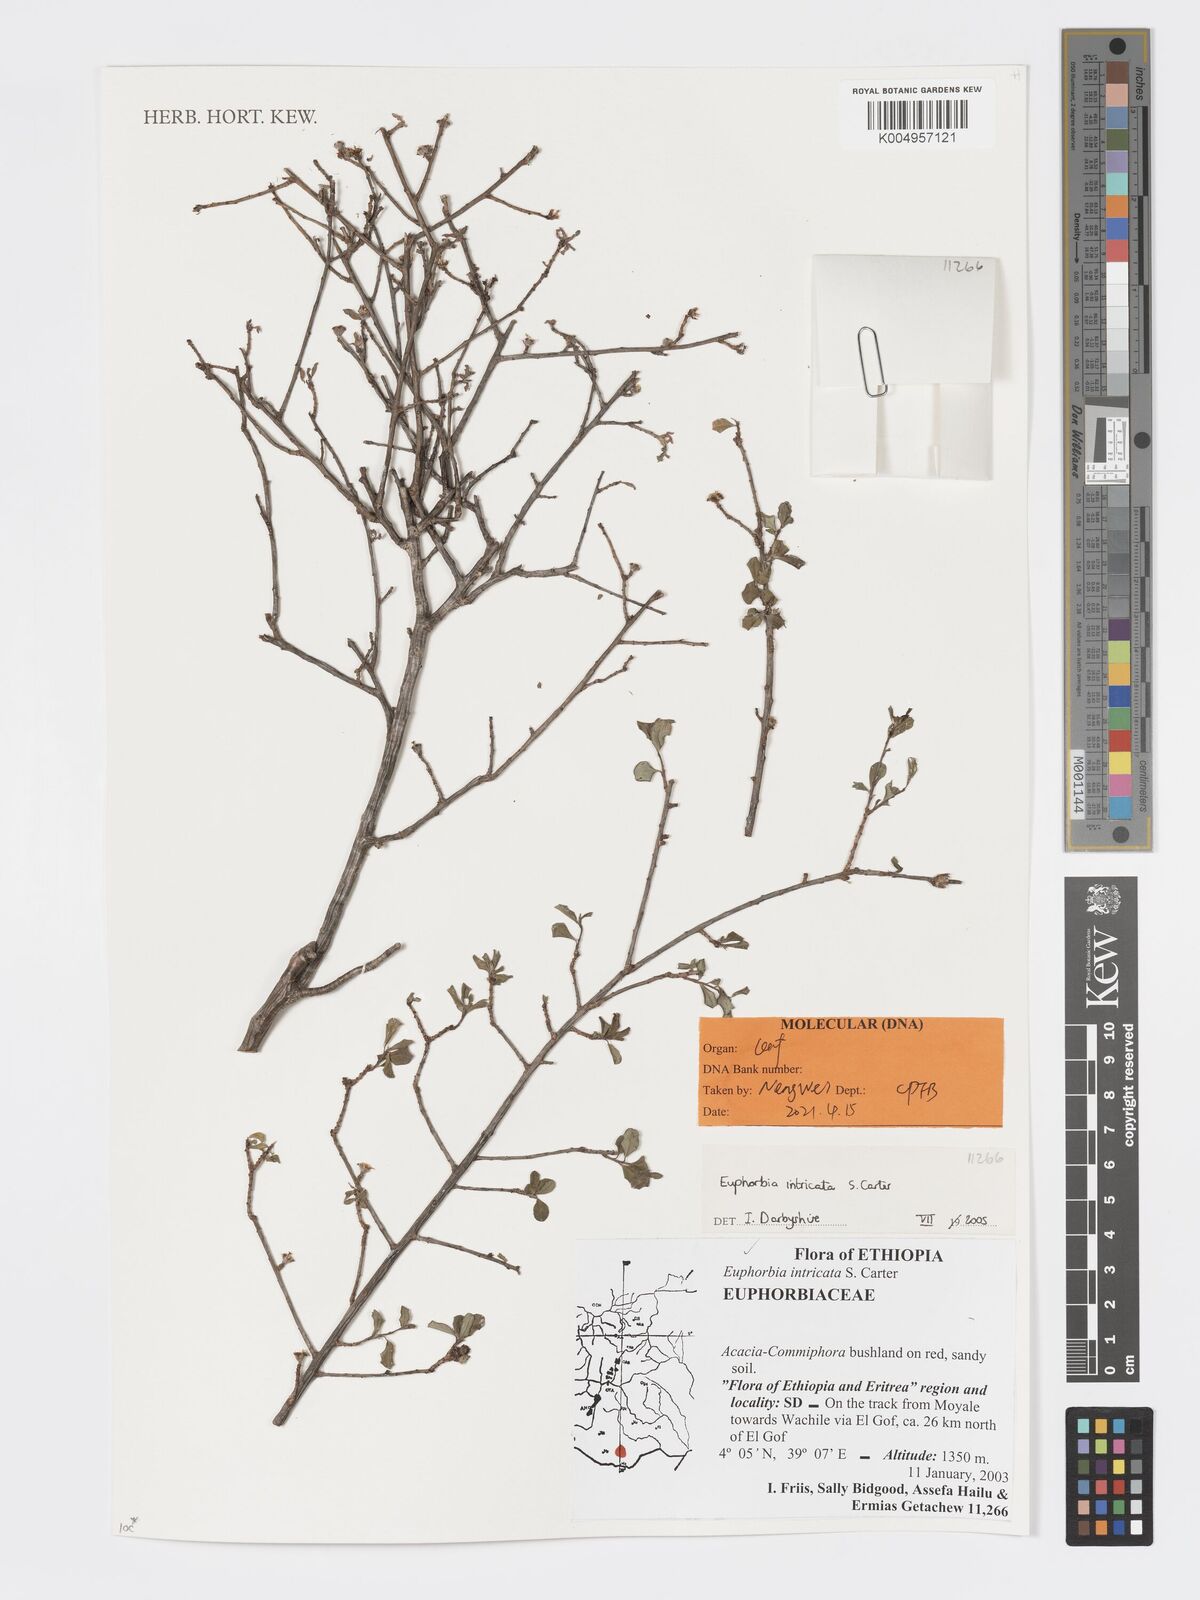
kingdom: Plantae
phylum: Tracheophyta
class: Magnoliopsida
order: Malpighiales
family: Euphorbiaceae
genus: Euphorbia
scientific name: Euphorbia intricata
